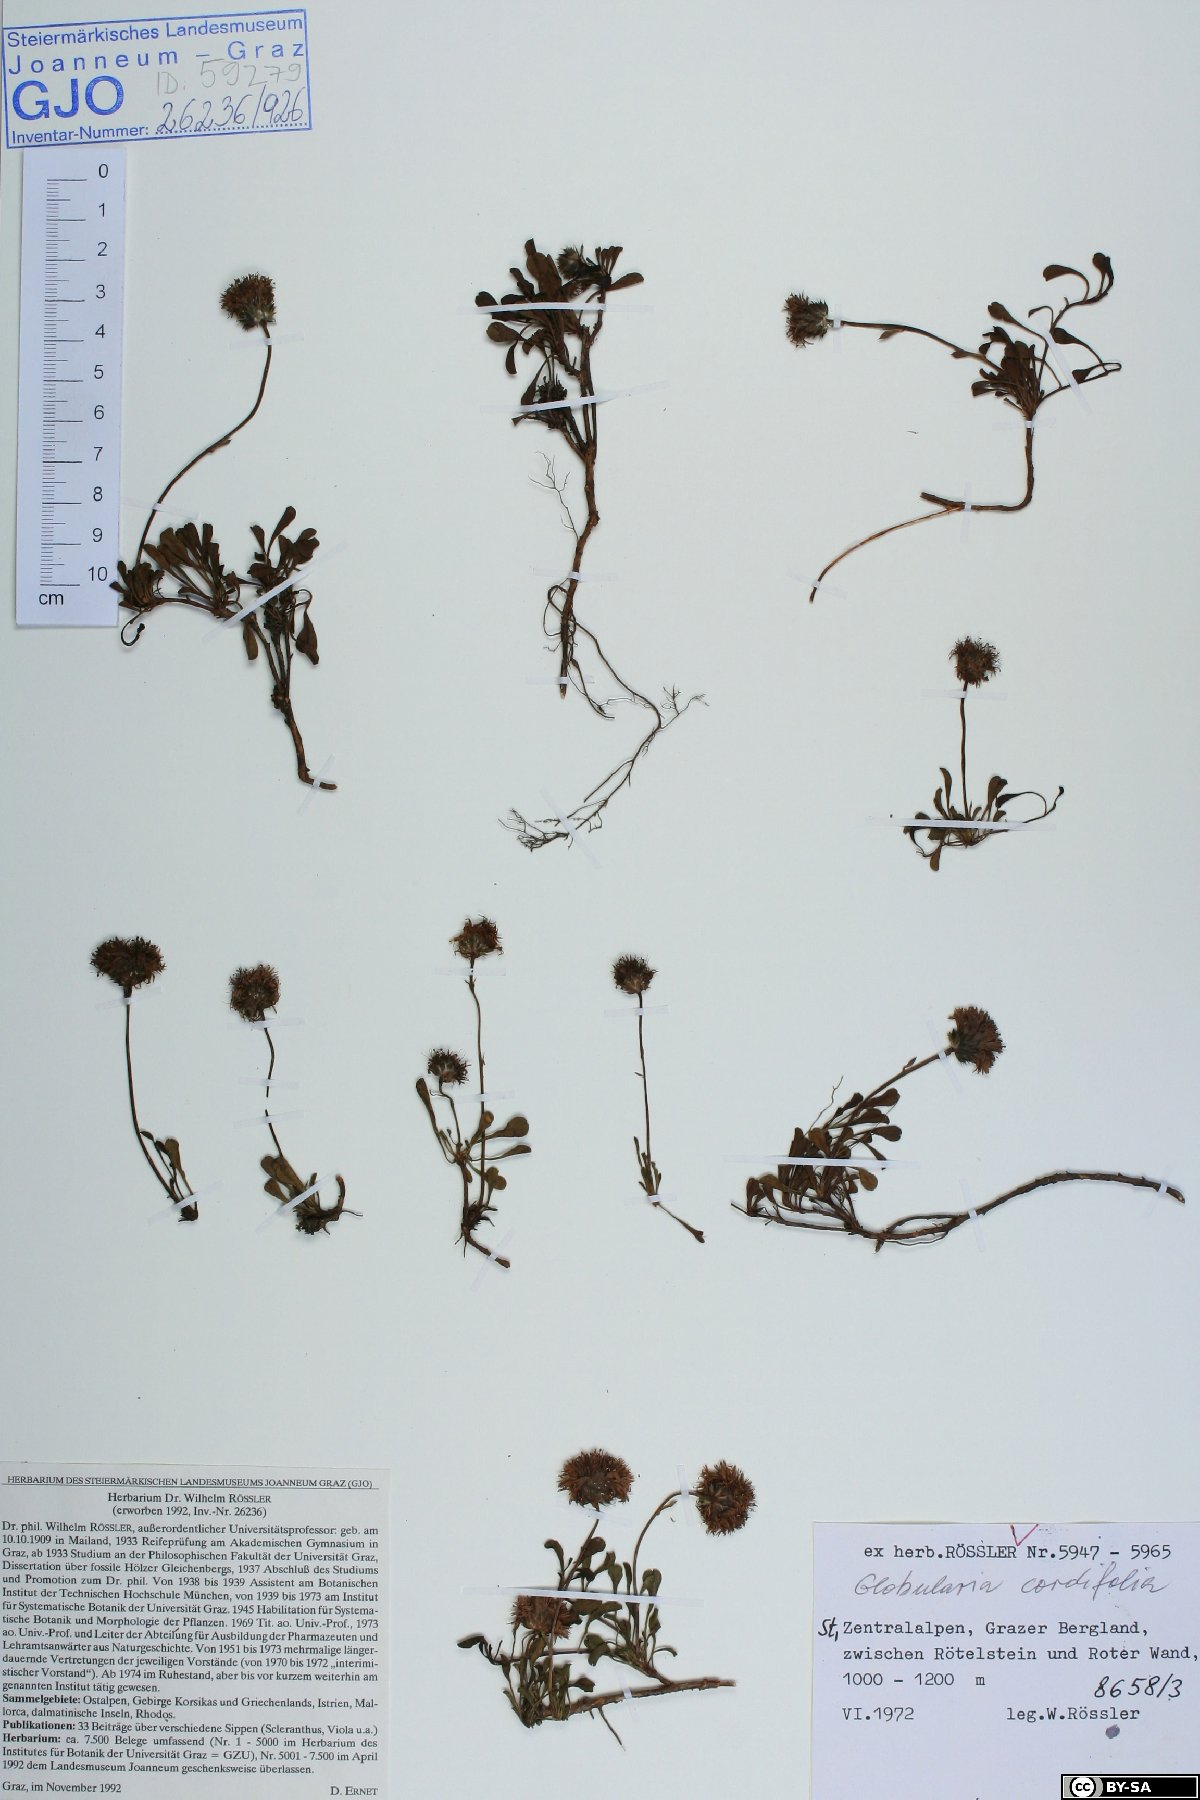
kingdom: Plantae
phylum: Tracheophyta
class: Magnoliopsida
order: Lamiales
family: Plantaginaceae
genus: Globularia
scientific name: Globularia cordifolia
